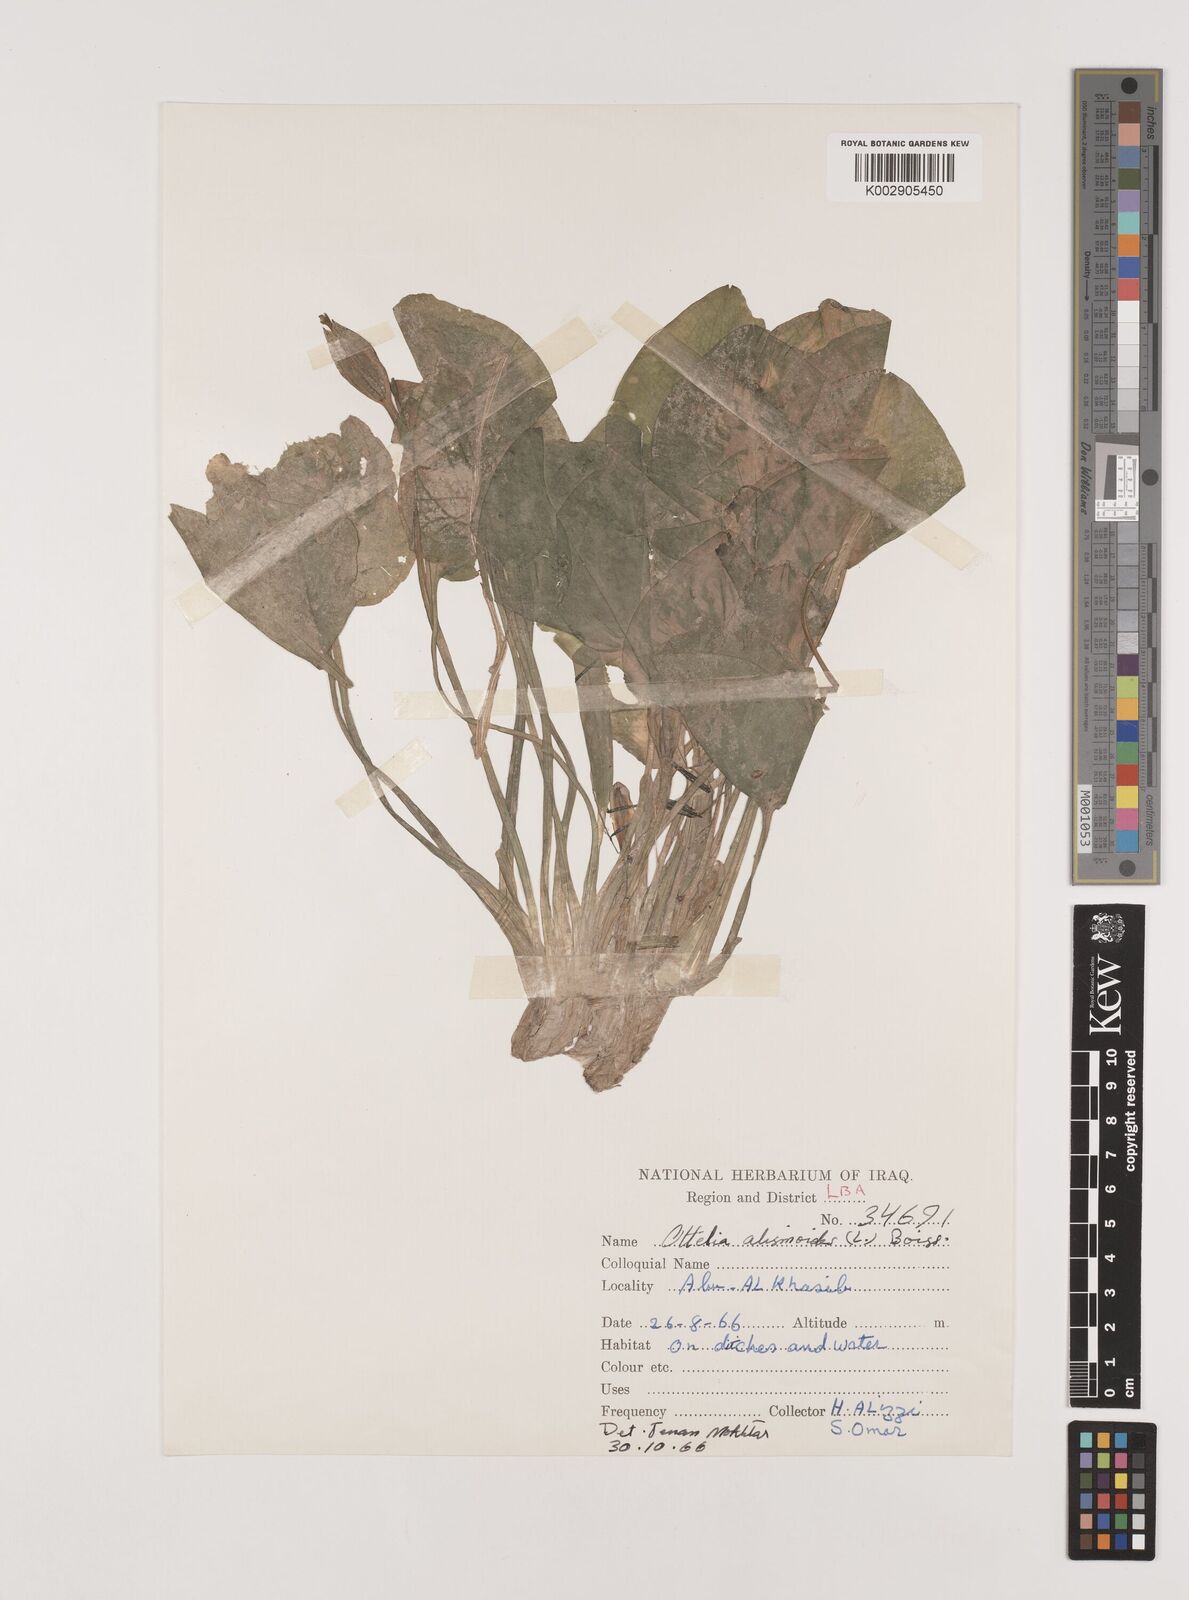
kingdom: Plantae
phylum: Tracheophyta
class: Liliopsida
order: Alismatales
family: Hydrocharitaceae
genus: Ottelia
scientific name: Ottelia alismoides
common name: Duck-lettuce
